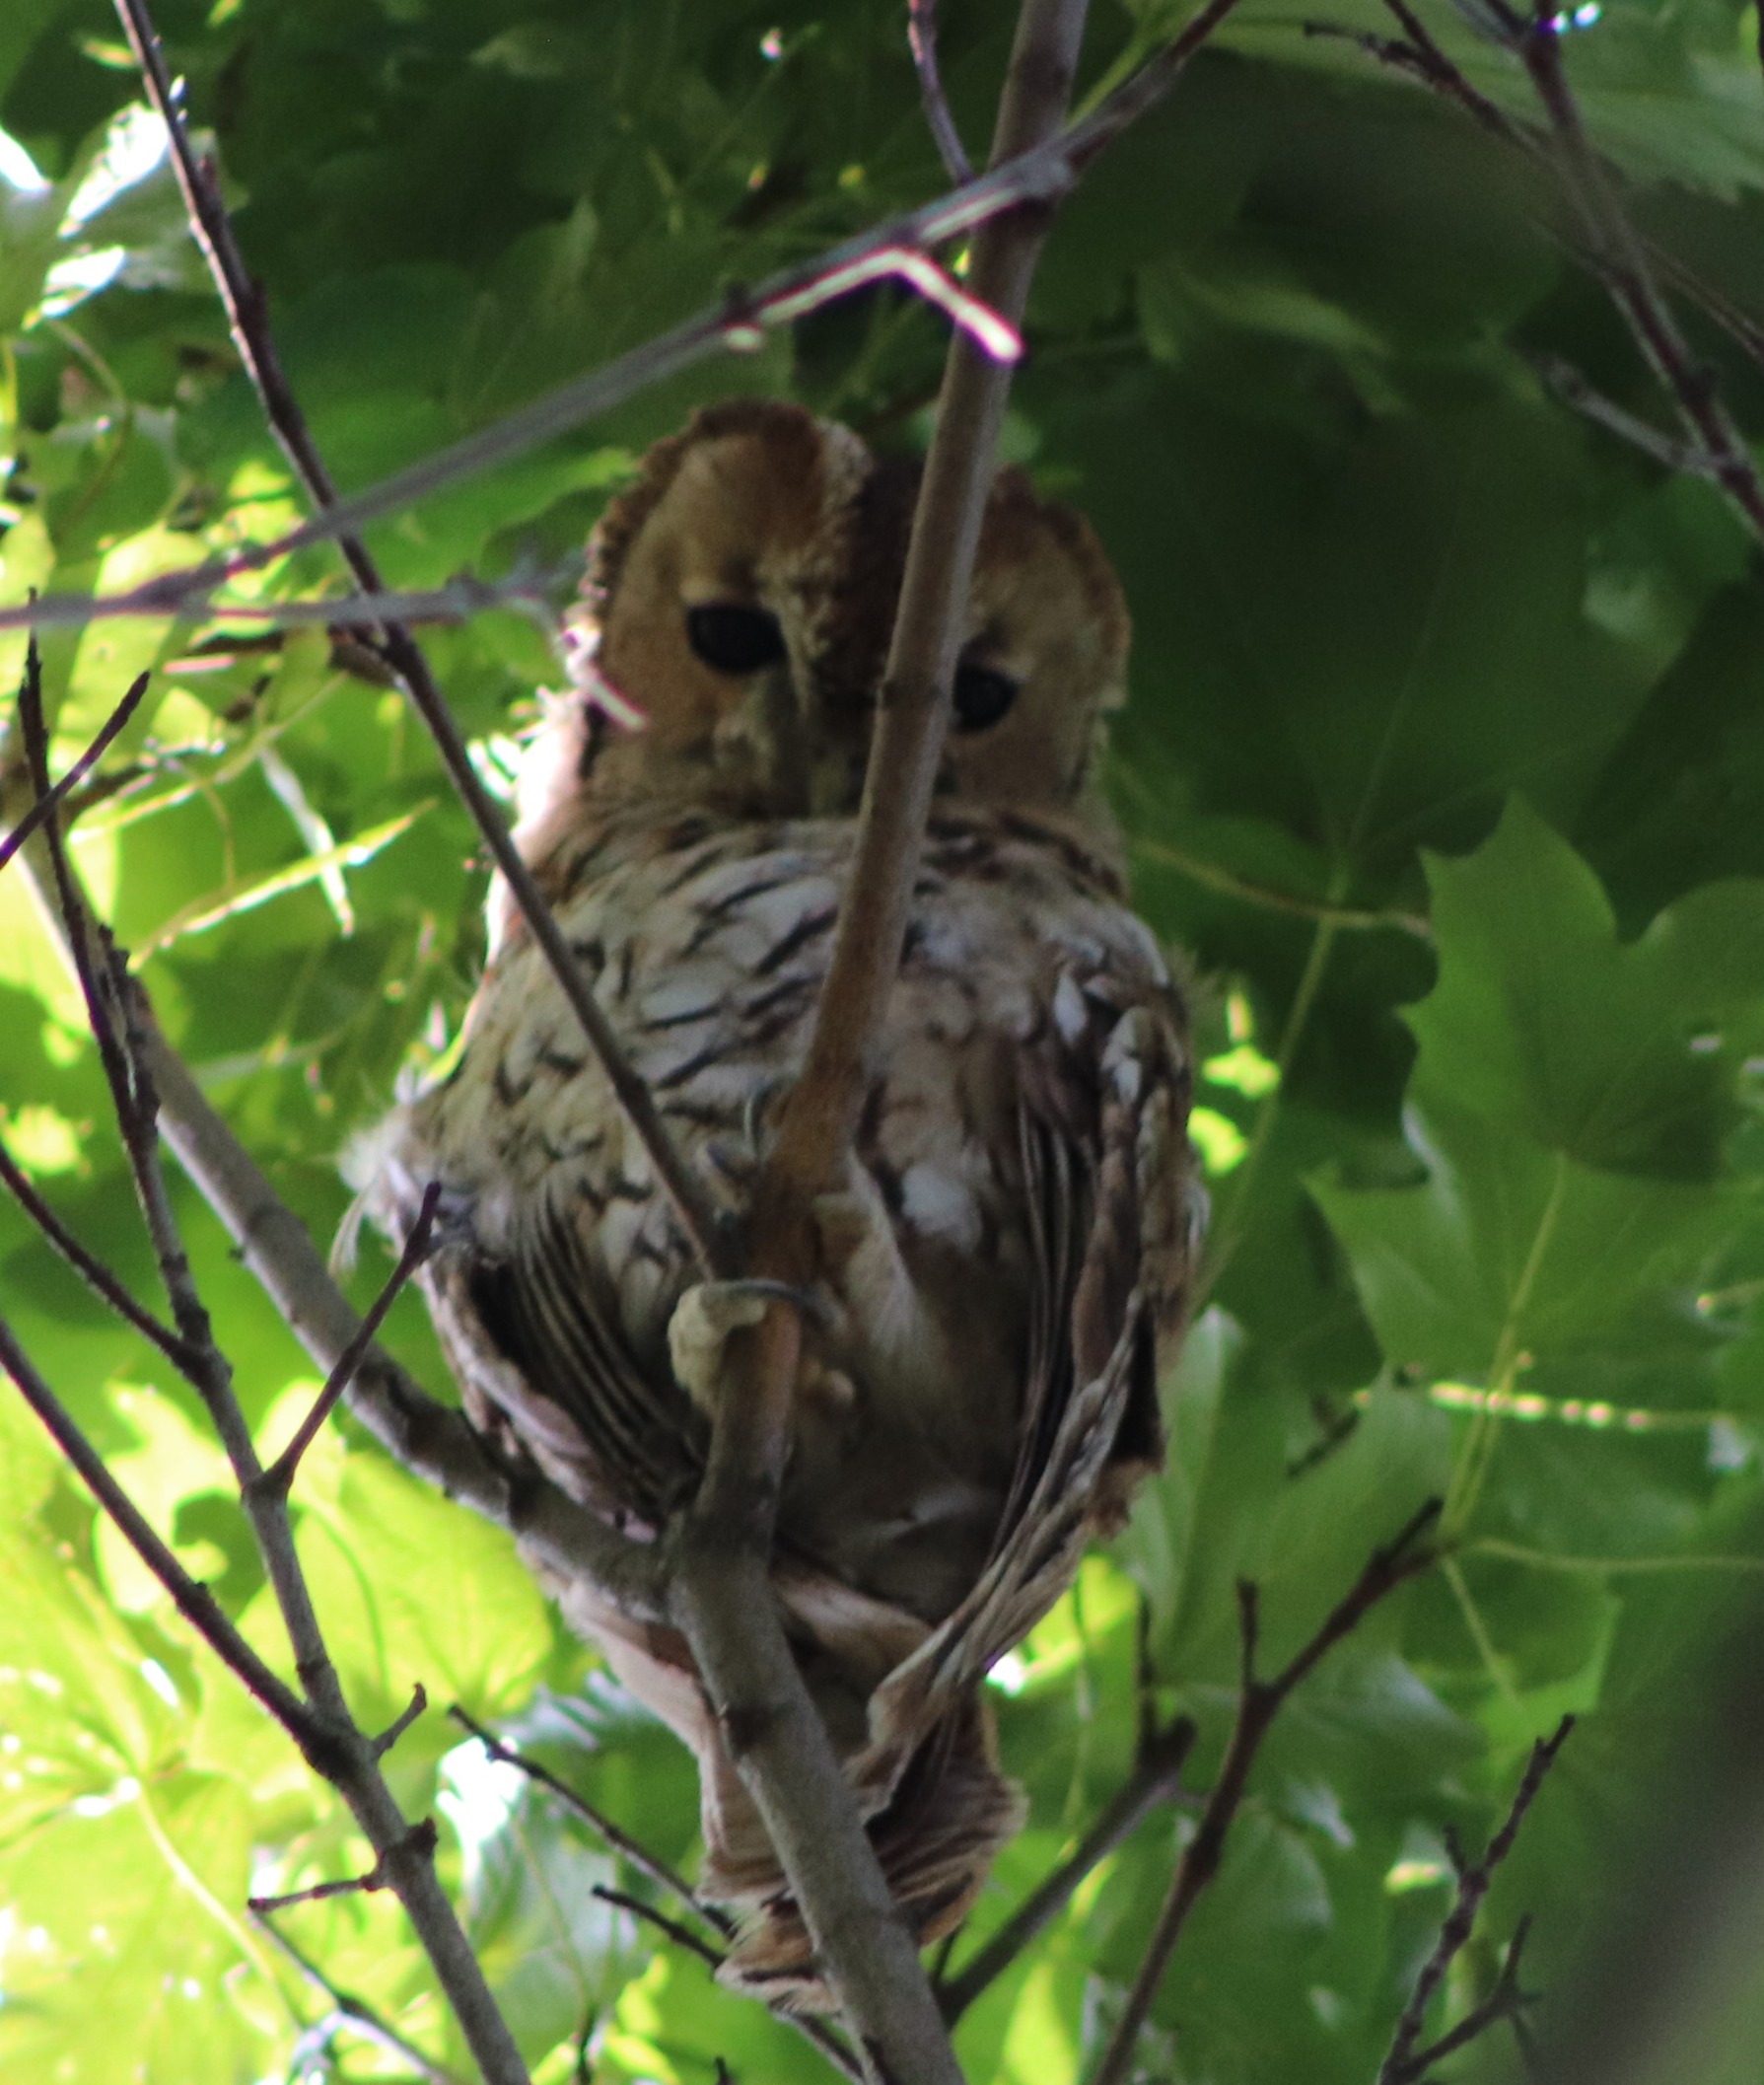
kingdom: Animalia
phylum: Chordata
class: Aves
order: Strigiformes
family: Strigidae
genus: Strix
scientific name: Strix aluco
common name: Natugle
